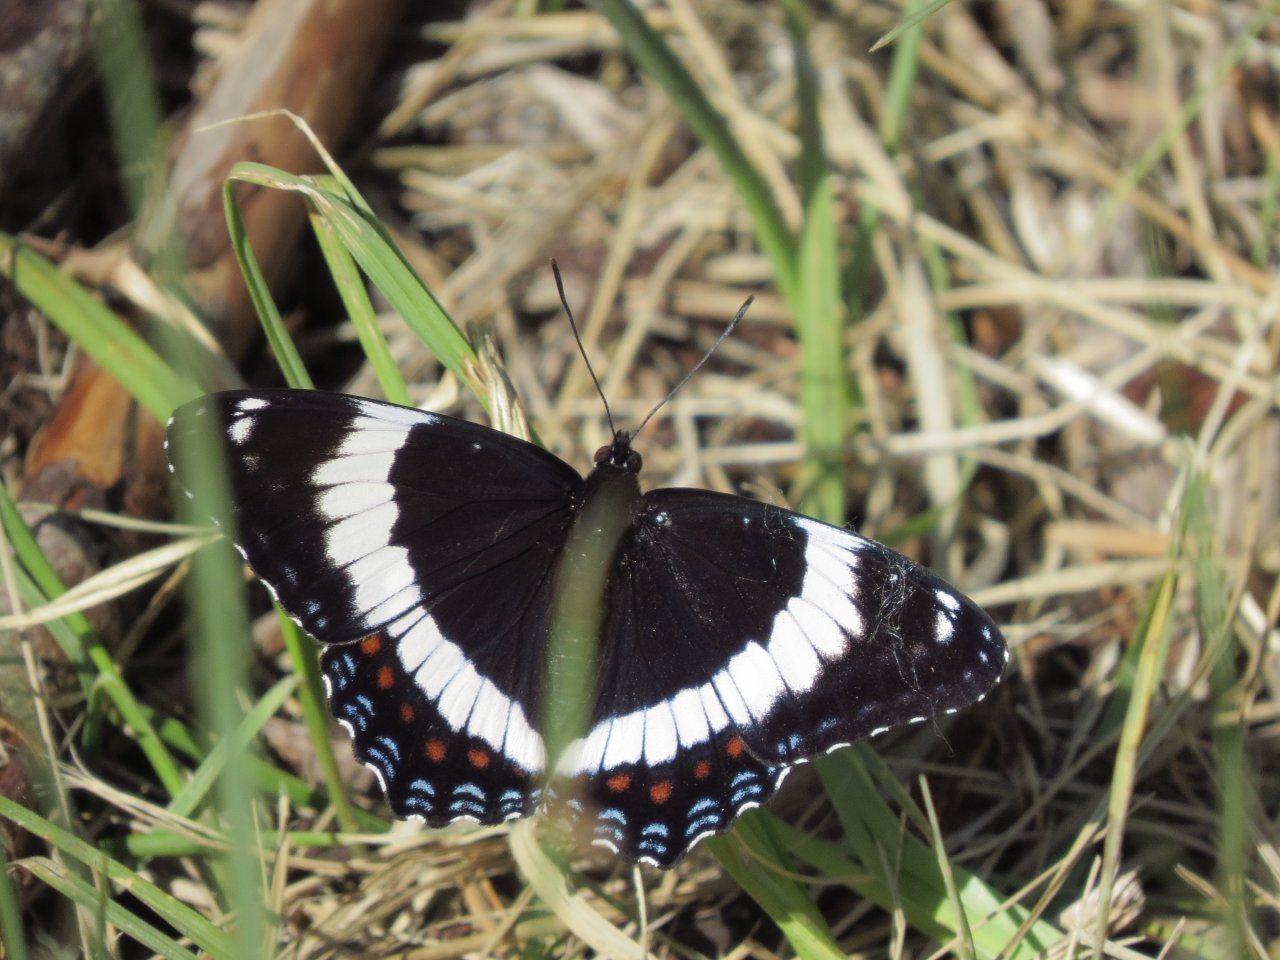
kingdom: Animalia
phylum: Arthropoda
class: Insecta
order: Lepidoptera
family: Nymphalidae
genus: Limenitis
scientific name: Limenitis arthemis
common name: Red-spotted Admiral
